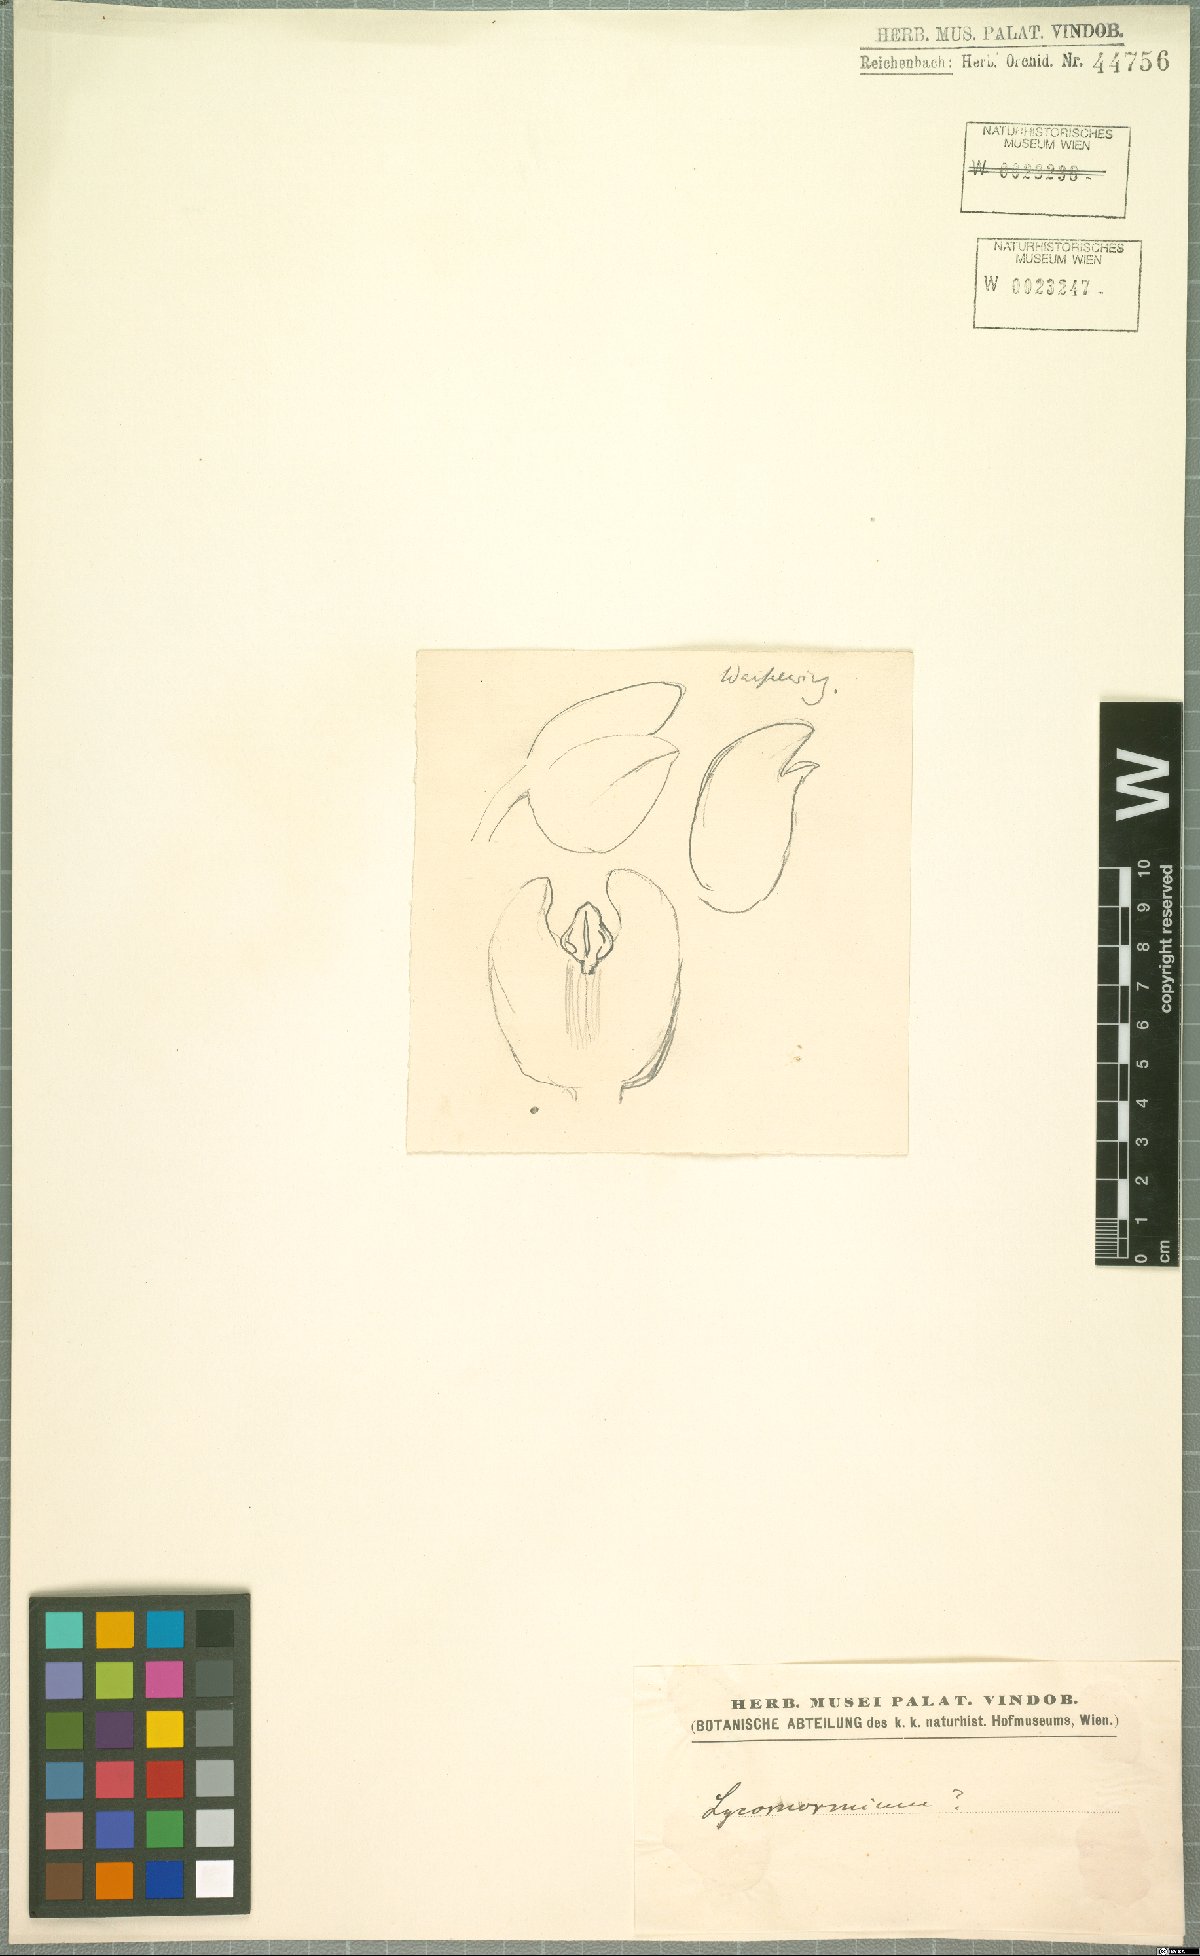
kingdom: Plantae
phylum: Tracheophyta
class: Liliopsida
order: Asparagales
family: Orchidaceae
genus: Lycomormium
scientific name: Lycomormium
